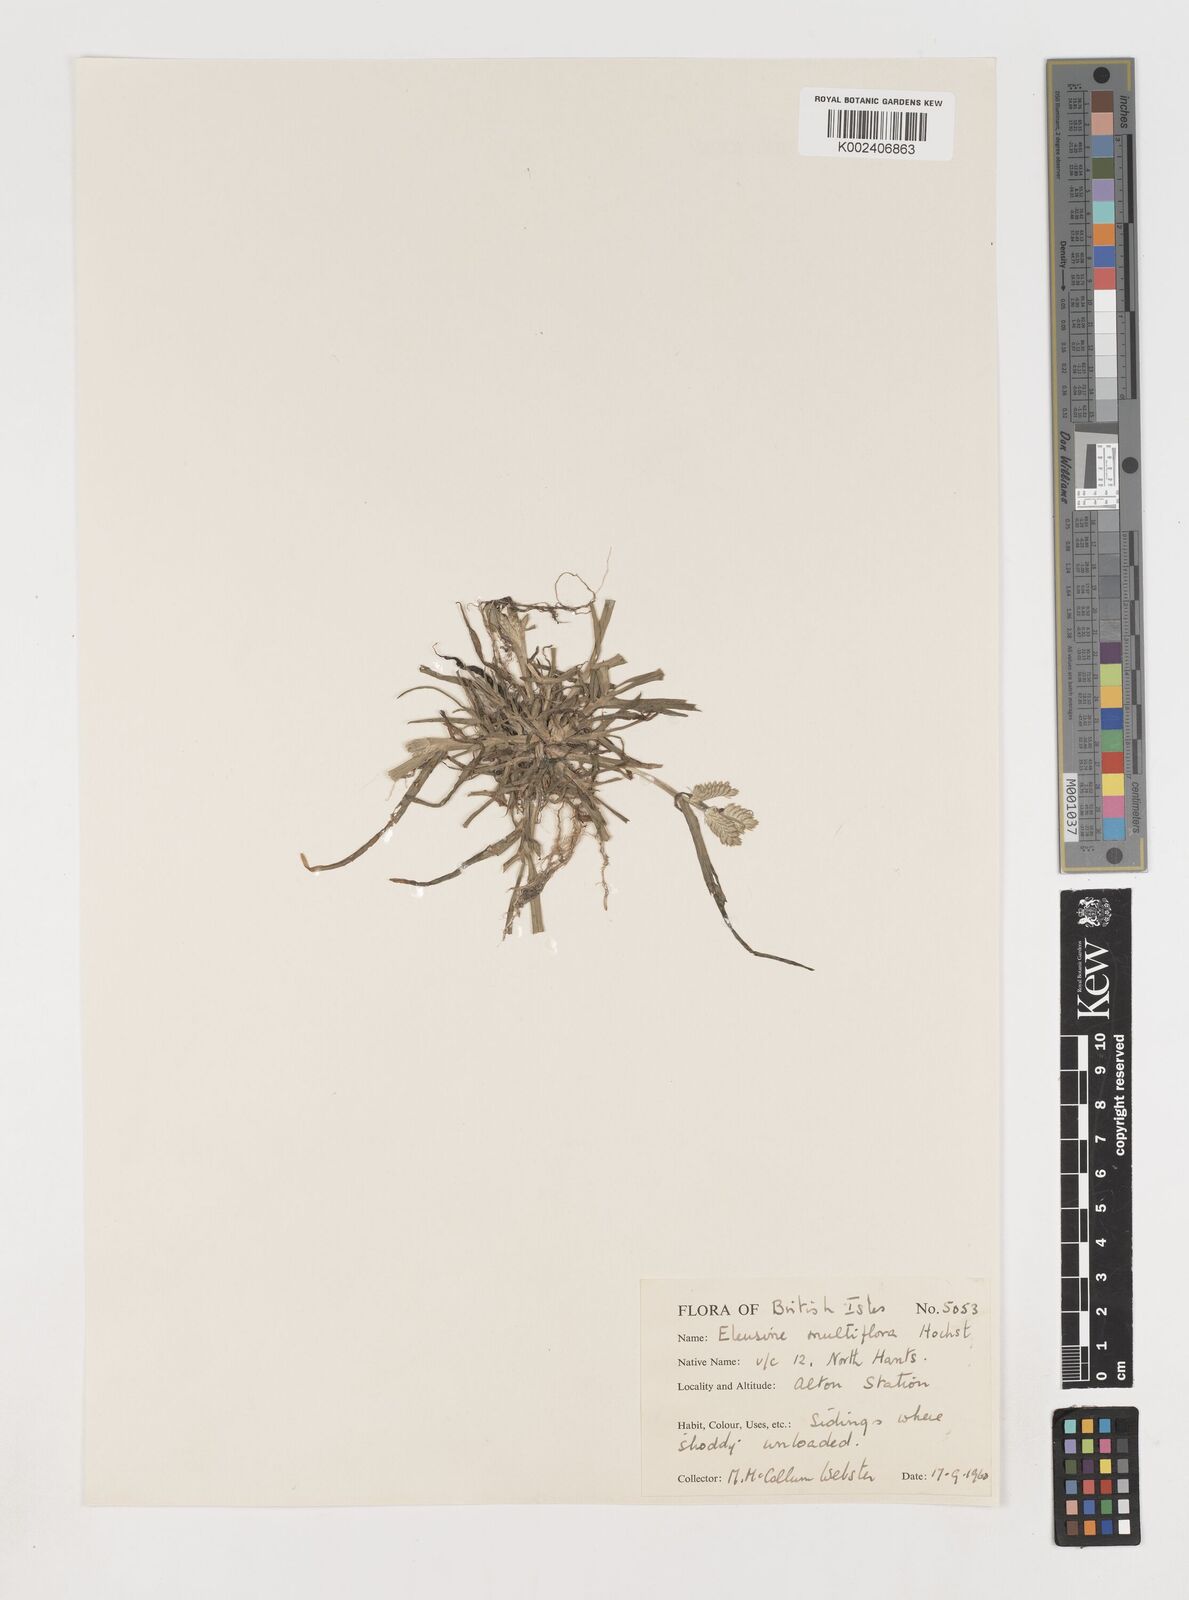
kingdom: Plantae
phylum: Tracheophyta
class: Liliopsida
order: Poales
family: Poaceae
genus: Eleusine
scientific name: Eleusine multiflora
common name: Fat-spiked yard-grass
